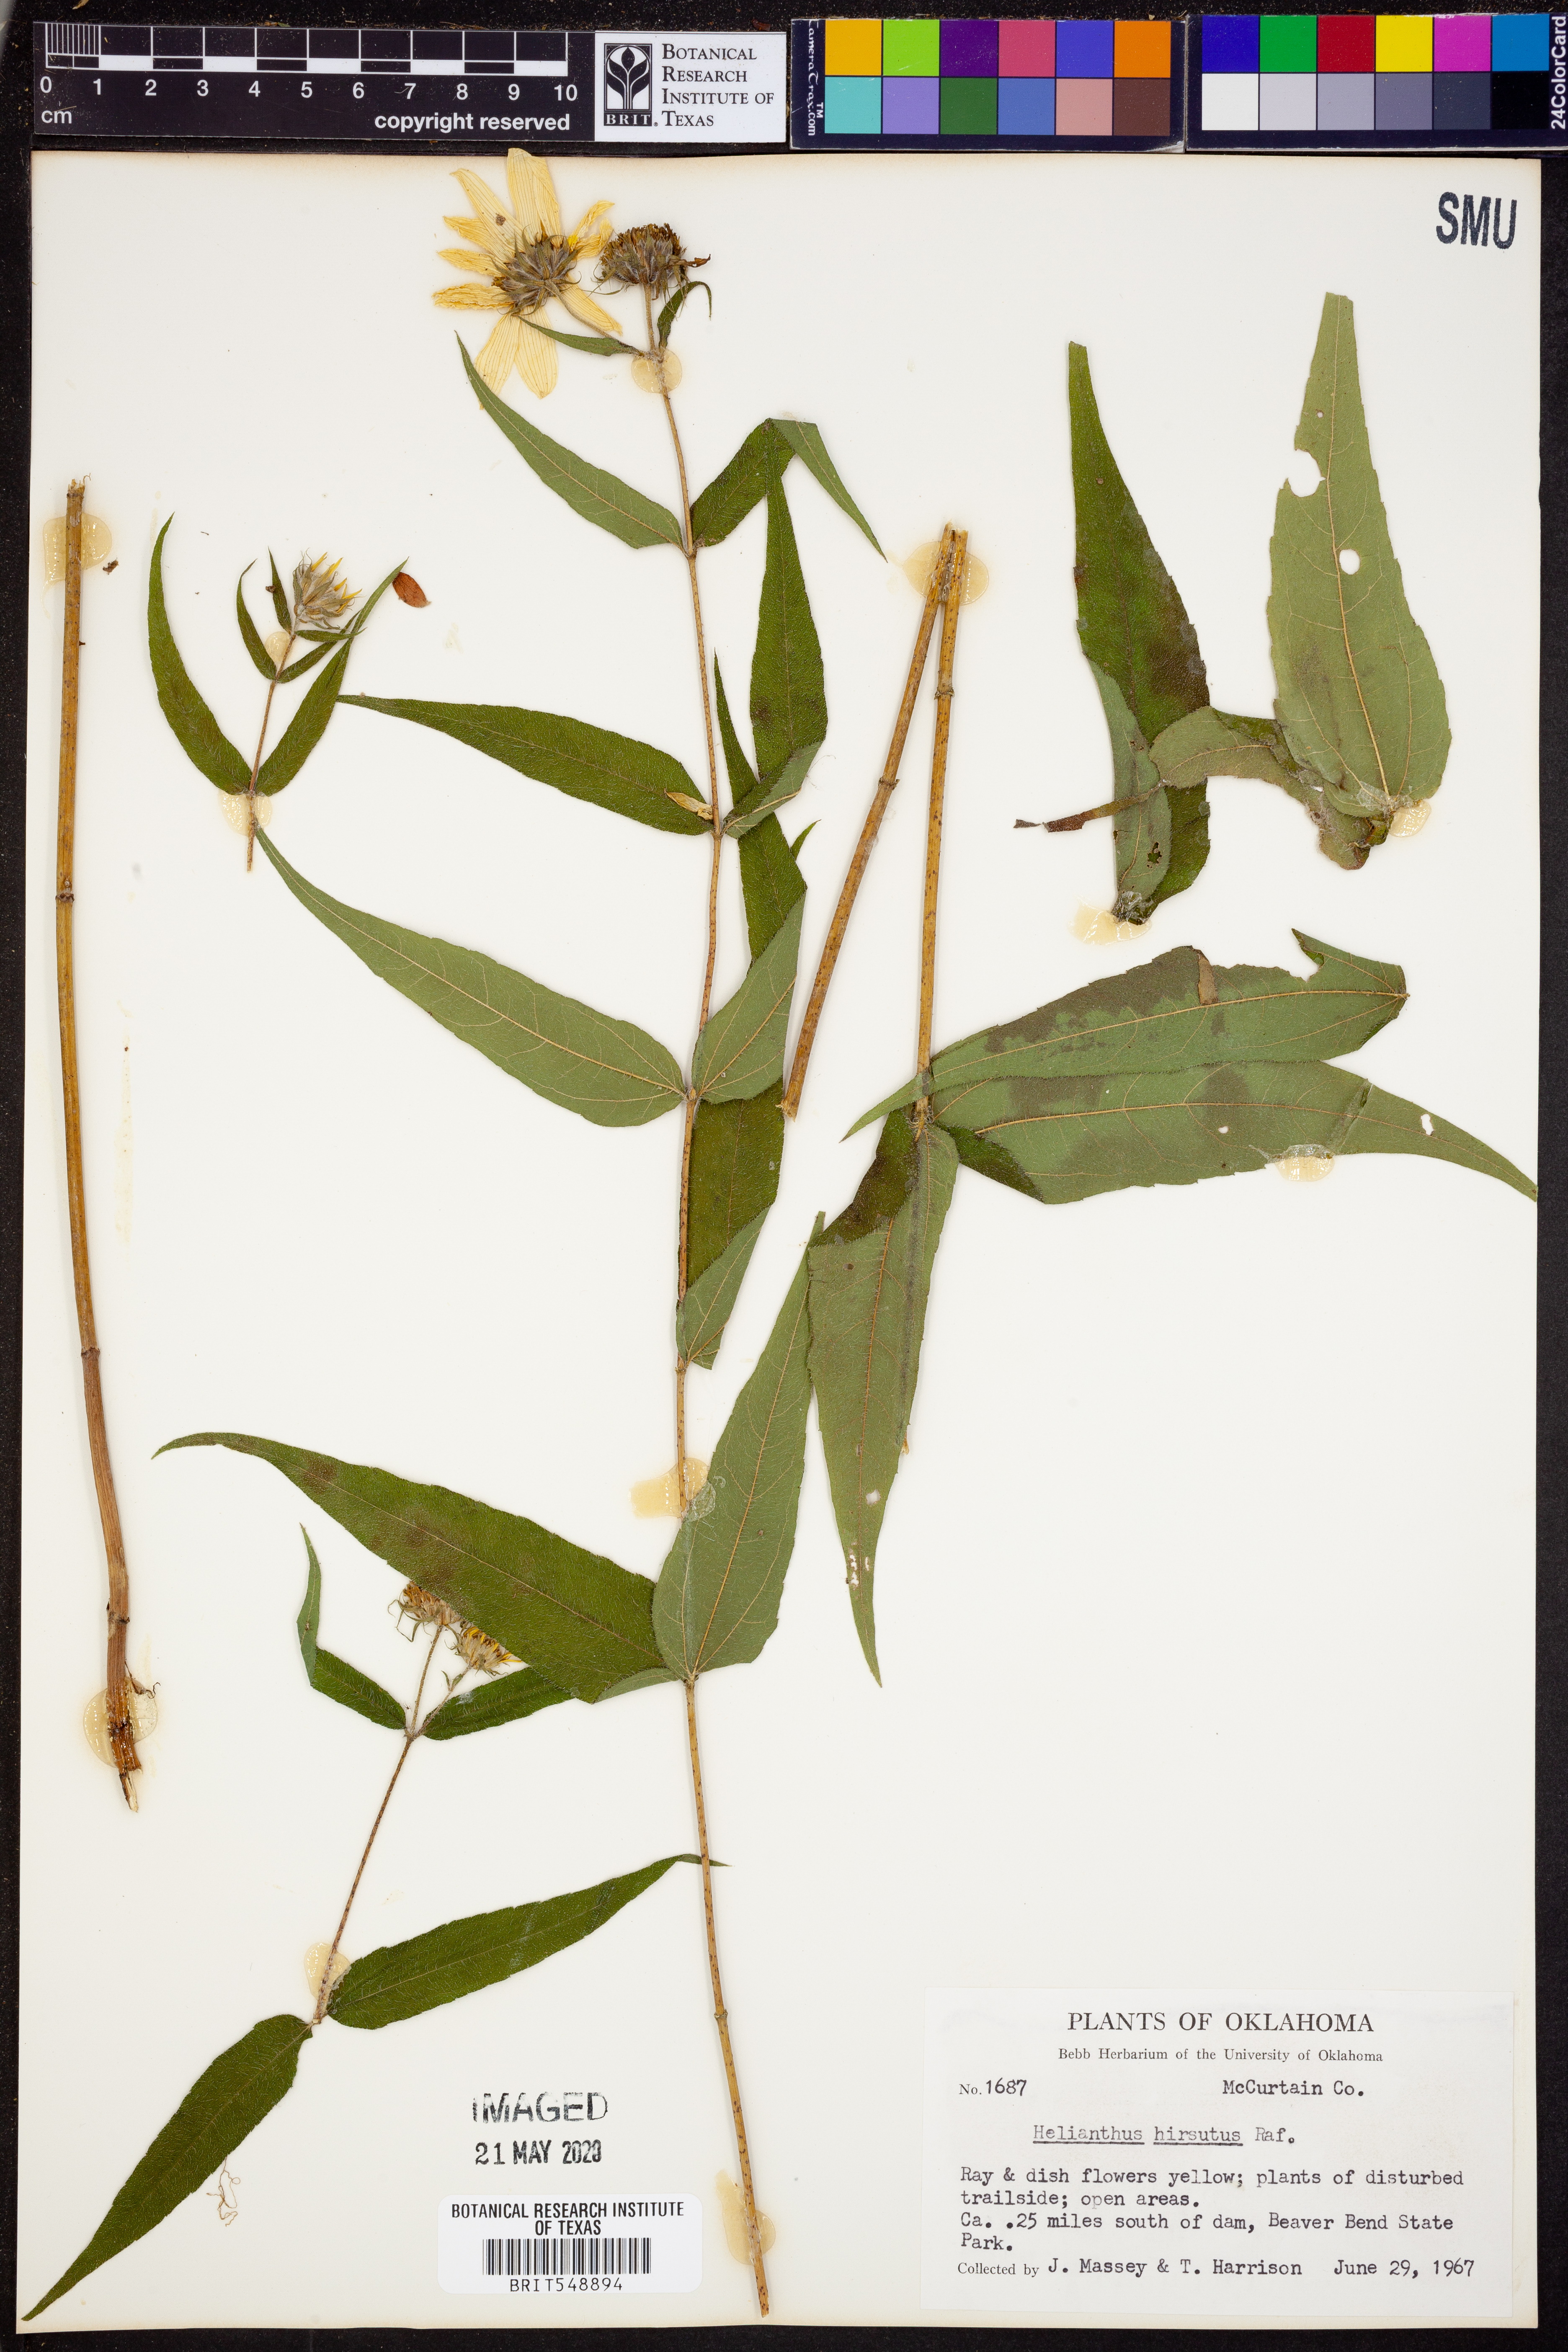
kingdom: Plantae
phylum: Tracheophyta
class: Magnoliopsida
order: Asterales
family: Asteraceae
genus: Helianthus
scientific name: Helianthus hirsutus
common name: Hairy sunflower
